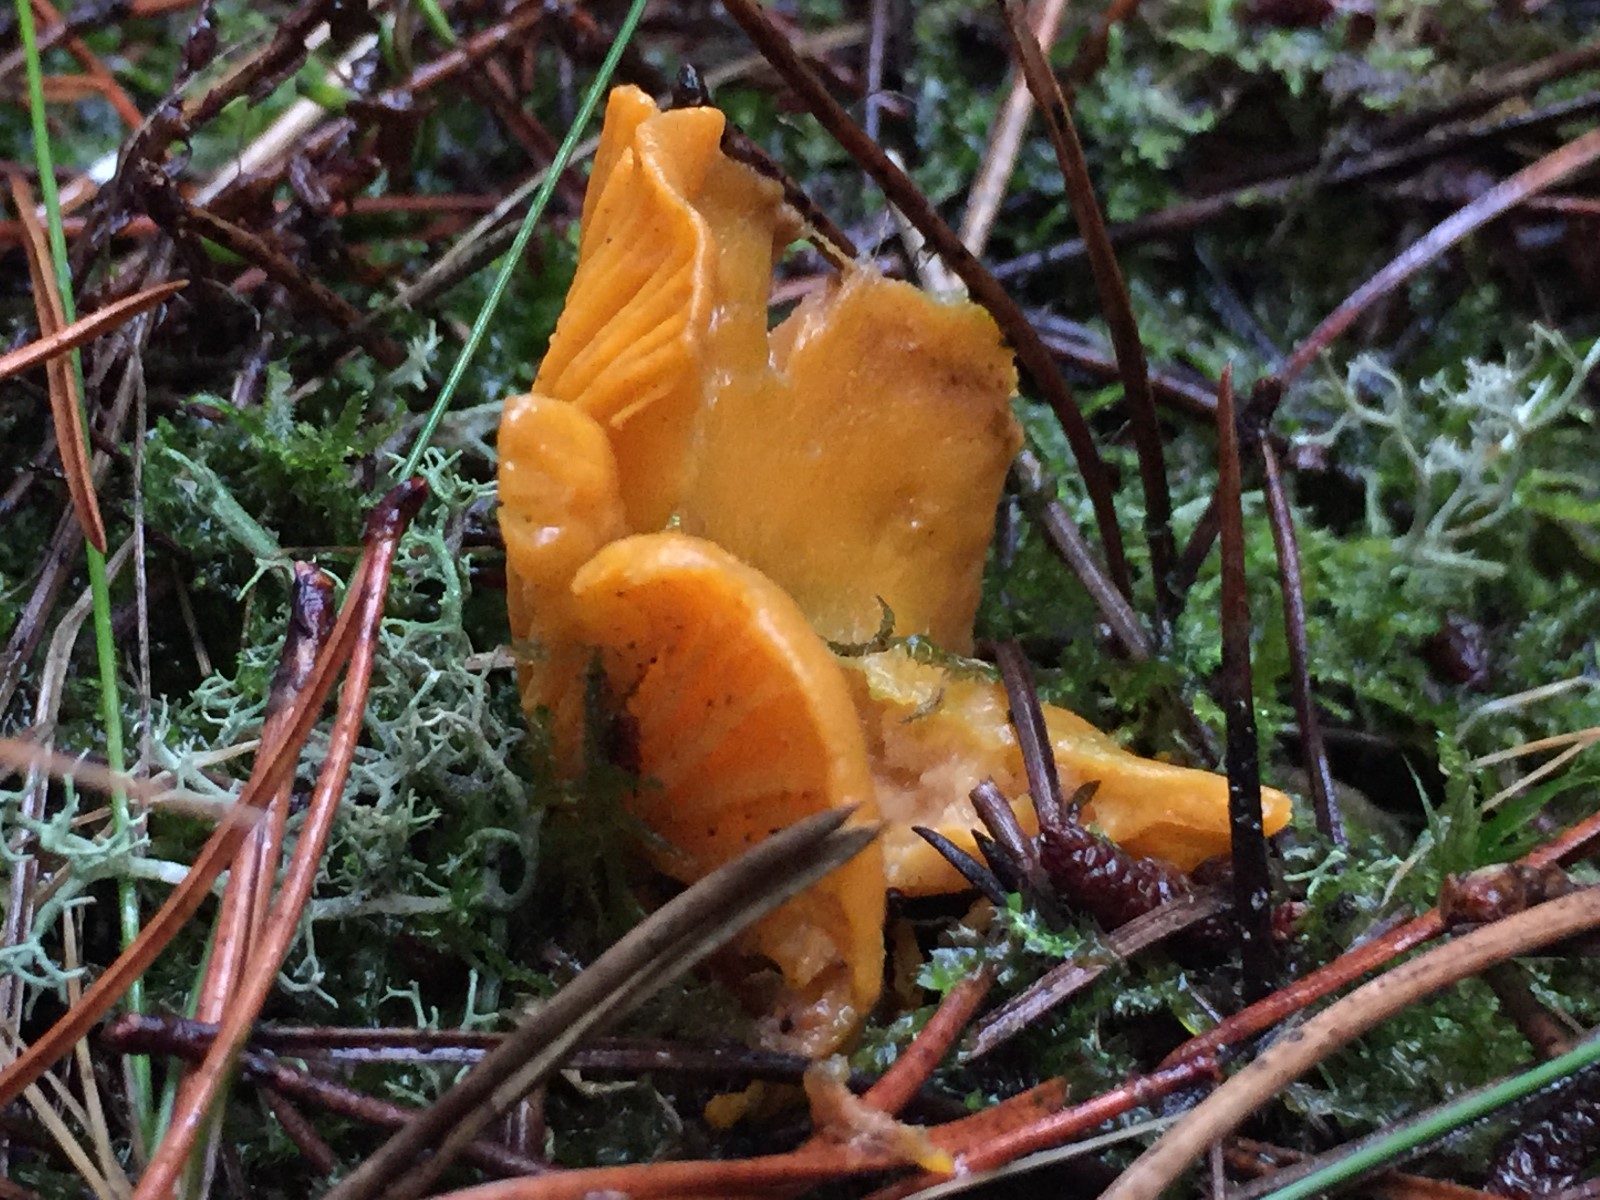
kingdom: Fungi
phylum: Basidiomycota
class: Agaricomycetes
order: Cantharellales
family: Hydnaceae
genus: Cantharellus
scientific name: Cantharellus cibarius
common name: almindelig kantarel
